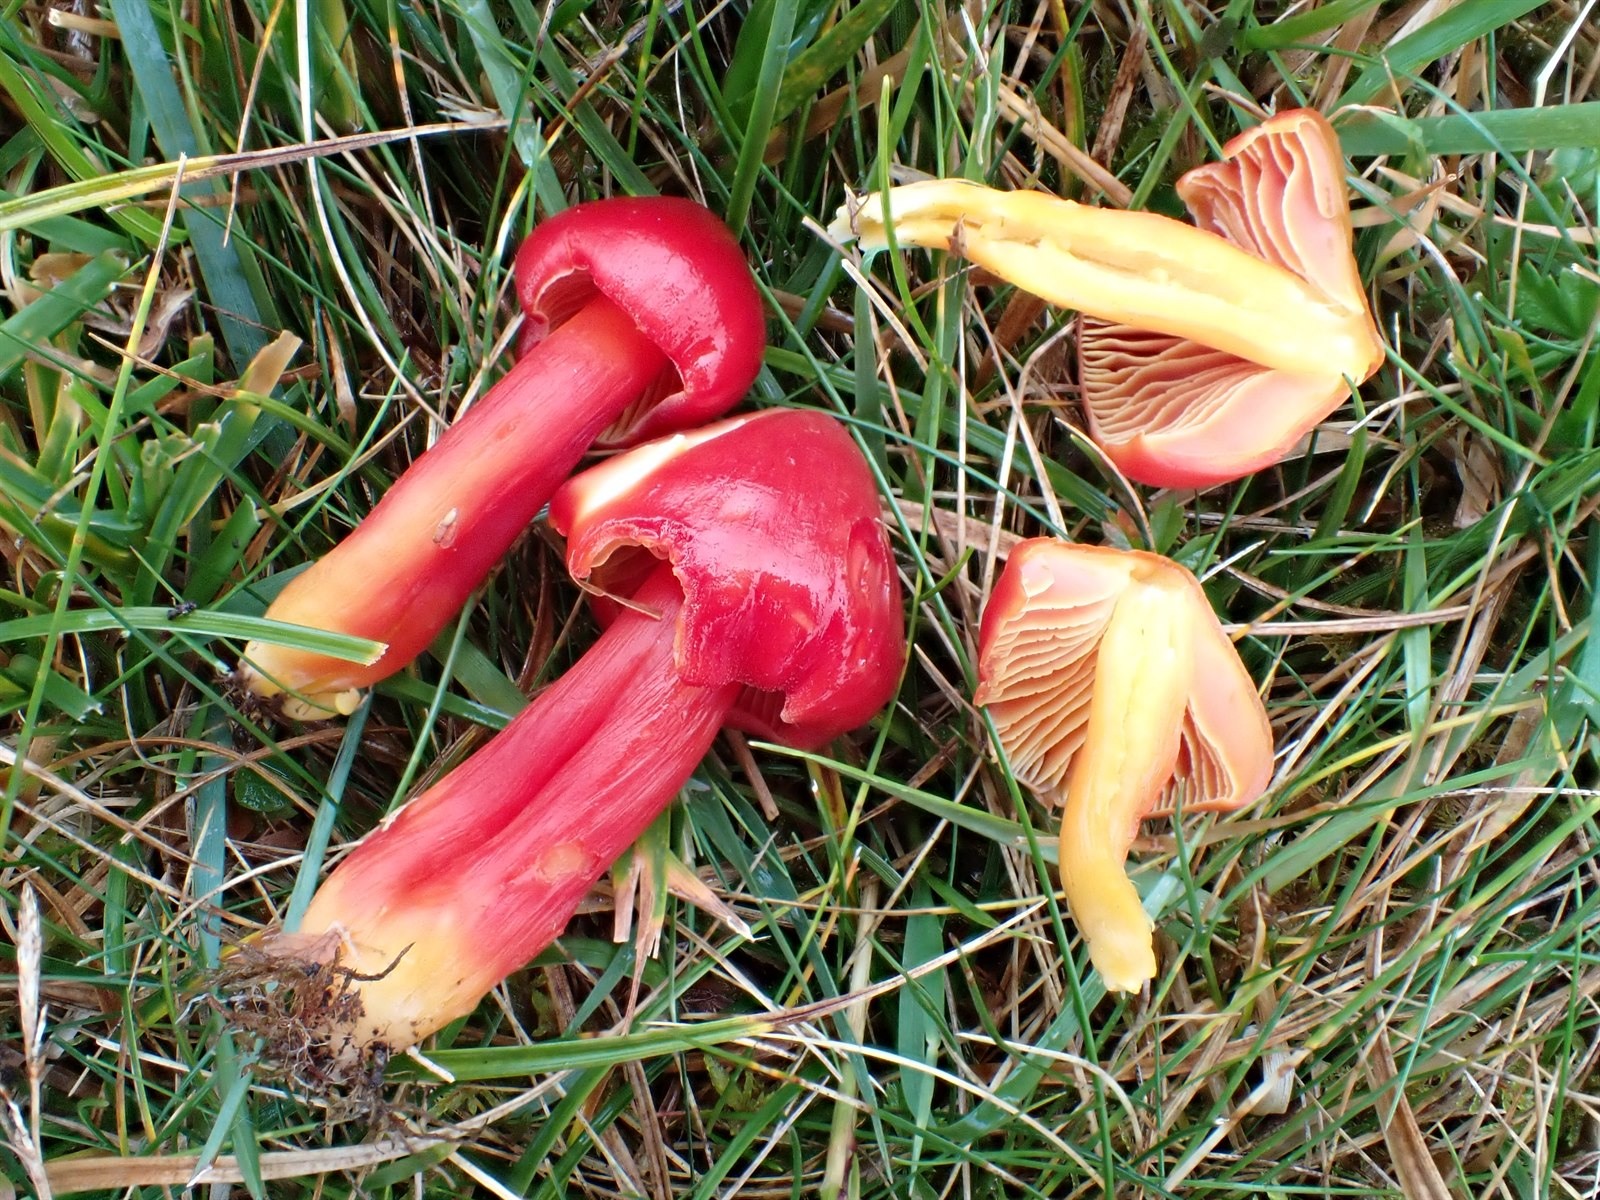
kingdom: Fungi
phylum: Basidiomycota
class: Agaricomycetes
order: Agaricales
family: Hygrophoraceae
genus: Hygrocybe
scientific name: Hygrocybe splendidissima
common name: Splendid waxcap
